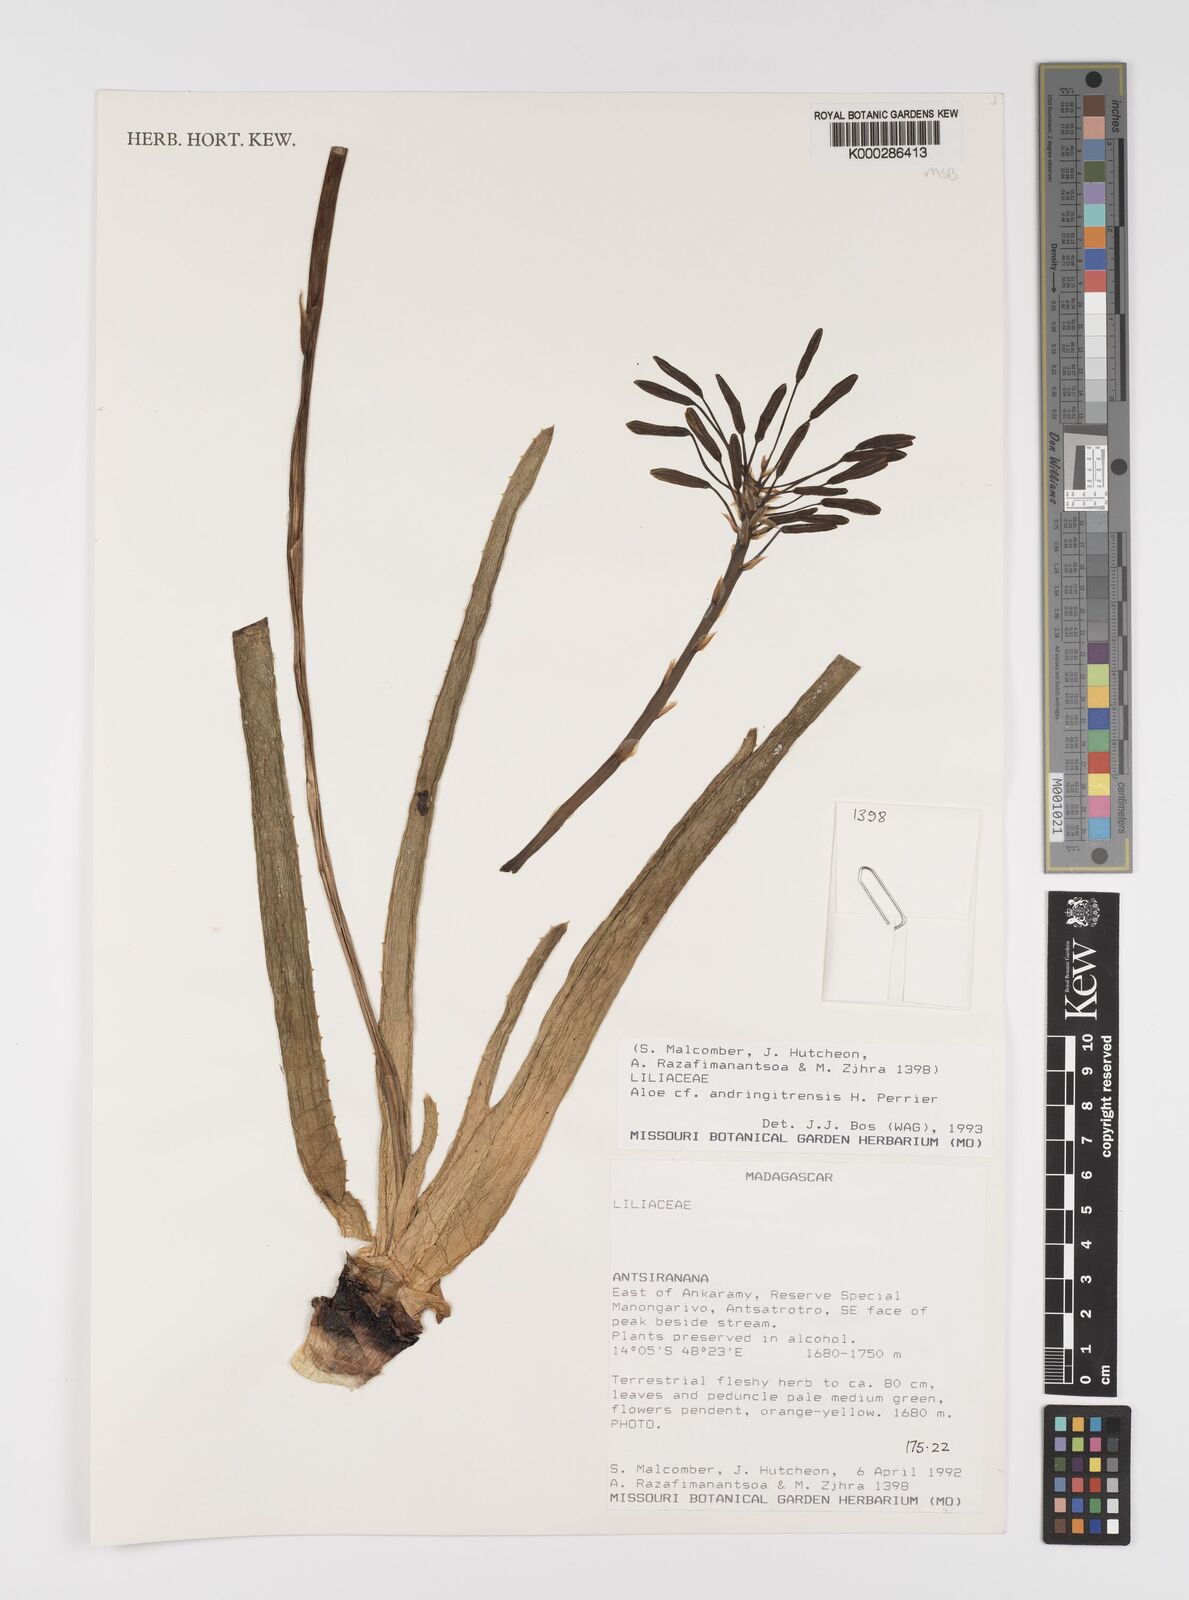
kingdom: Plantae
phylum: Tracheophyta
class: Liliopsida
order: Asparagales
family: Asphodelaceae
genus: Aloe
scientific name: Aloe
